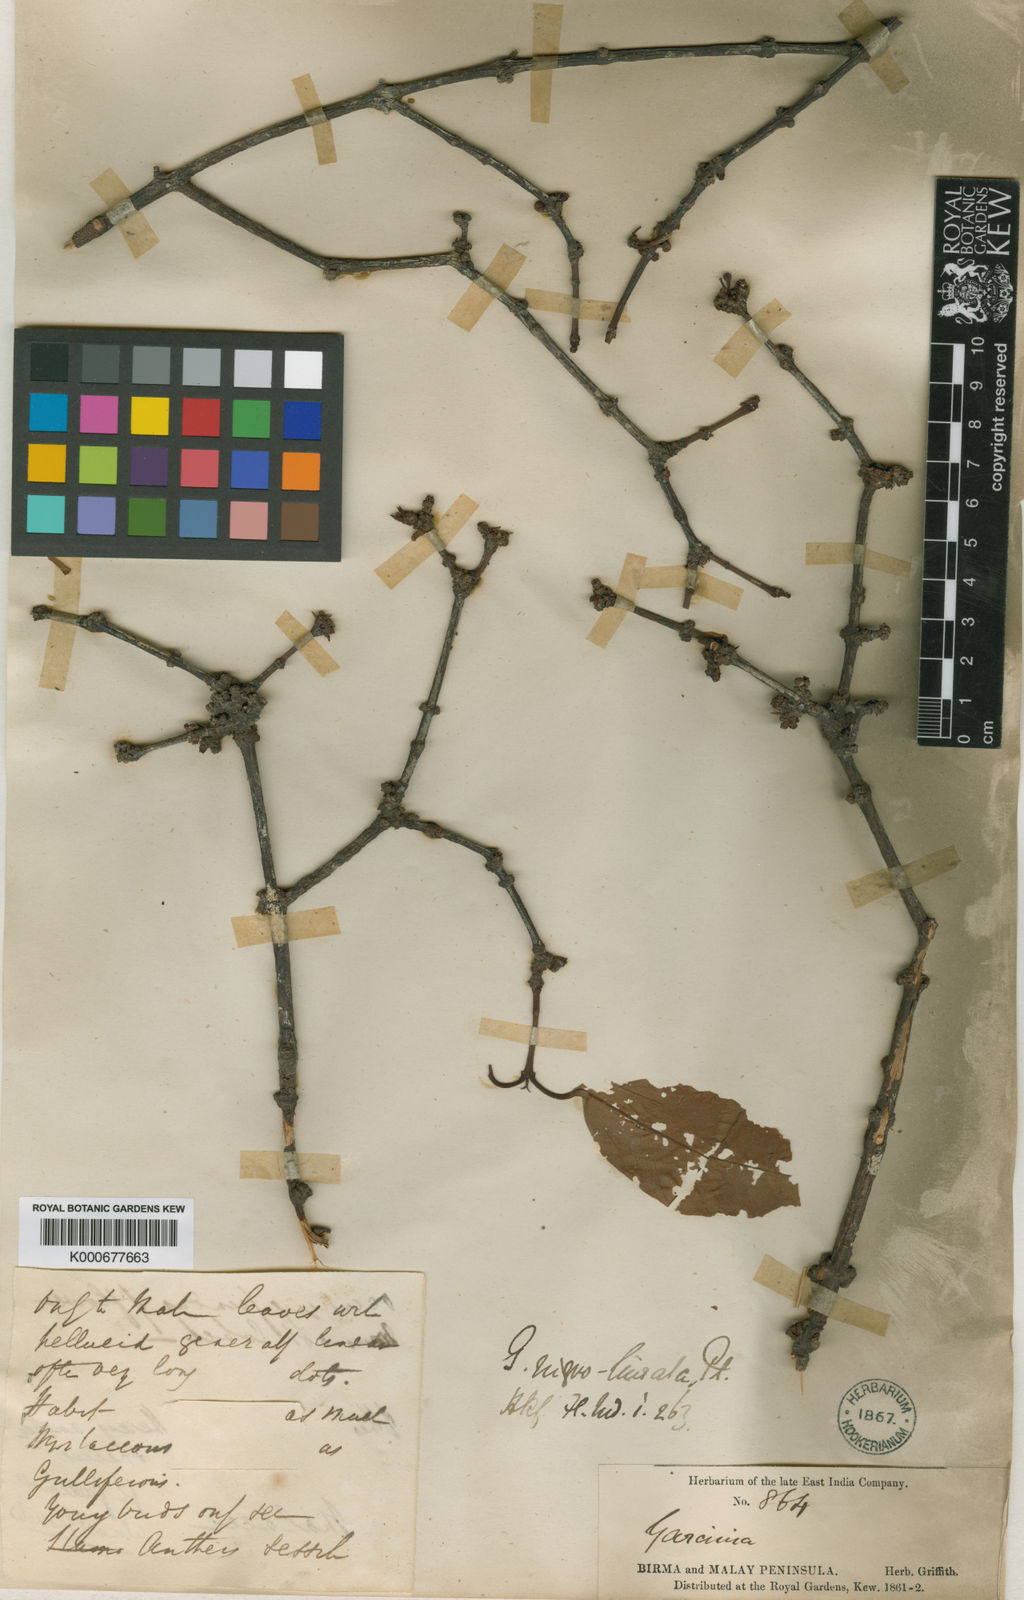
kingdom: Plantae
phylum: Tracheophyta
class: Magnoliopsida
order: Malpighiales
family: Clusiaceae
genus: Garcinia
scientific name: Garcinia nigrolineata
